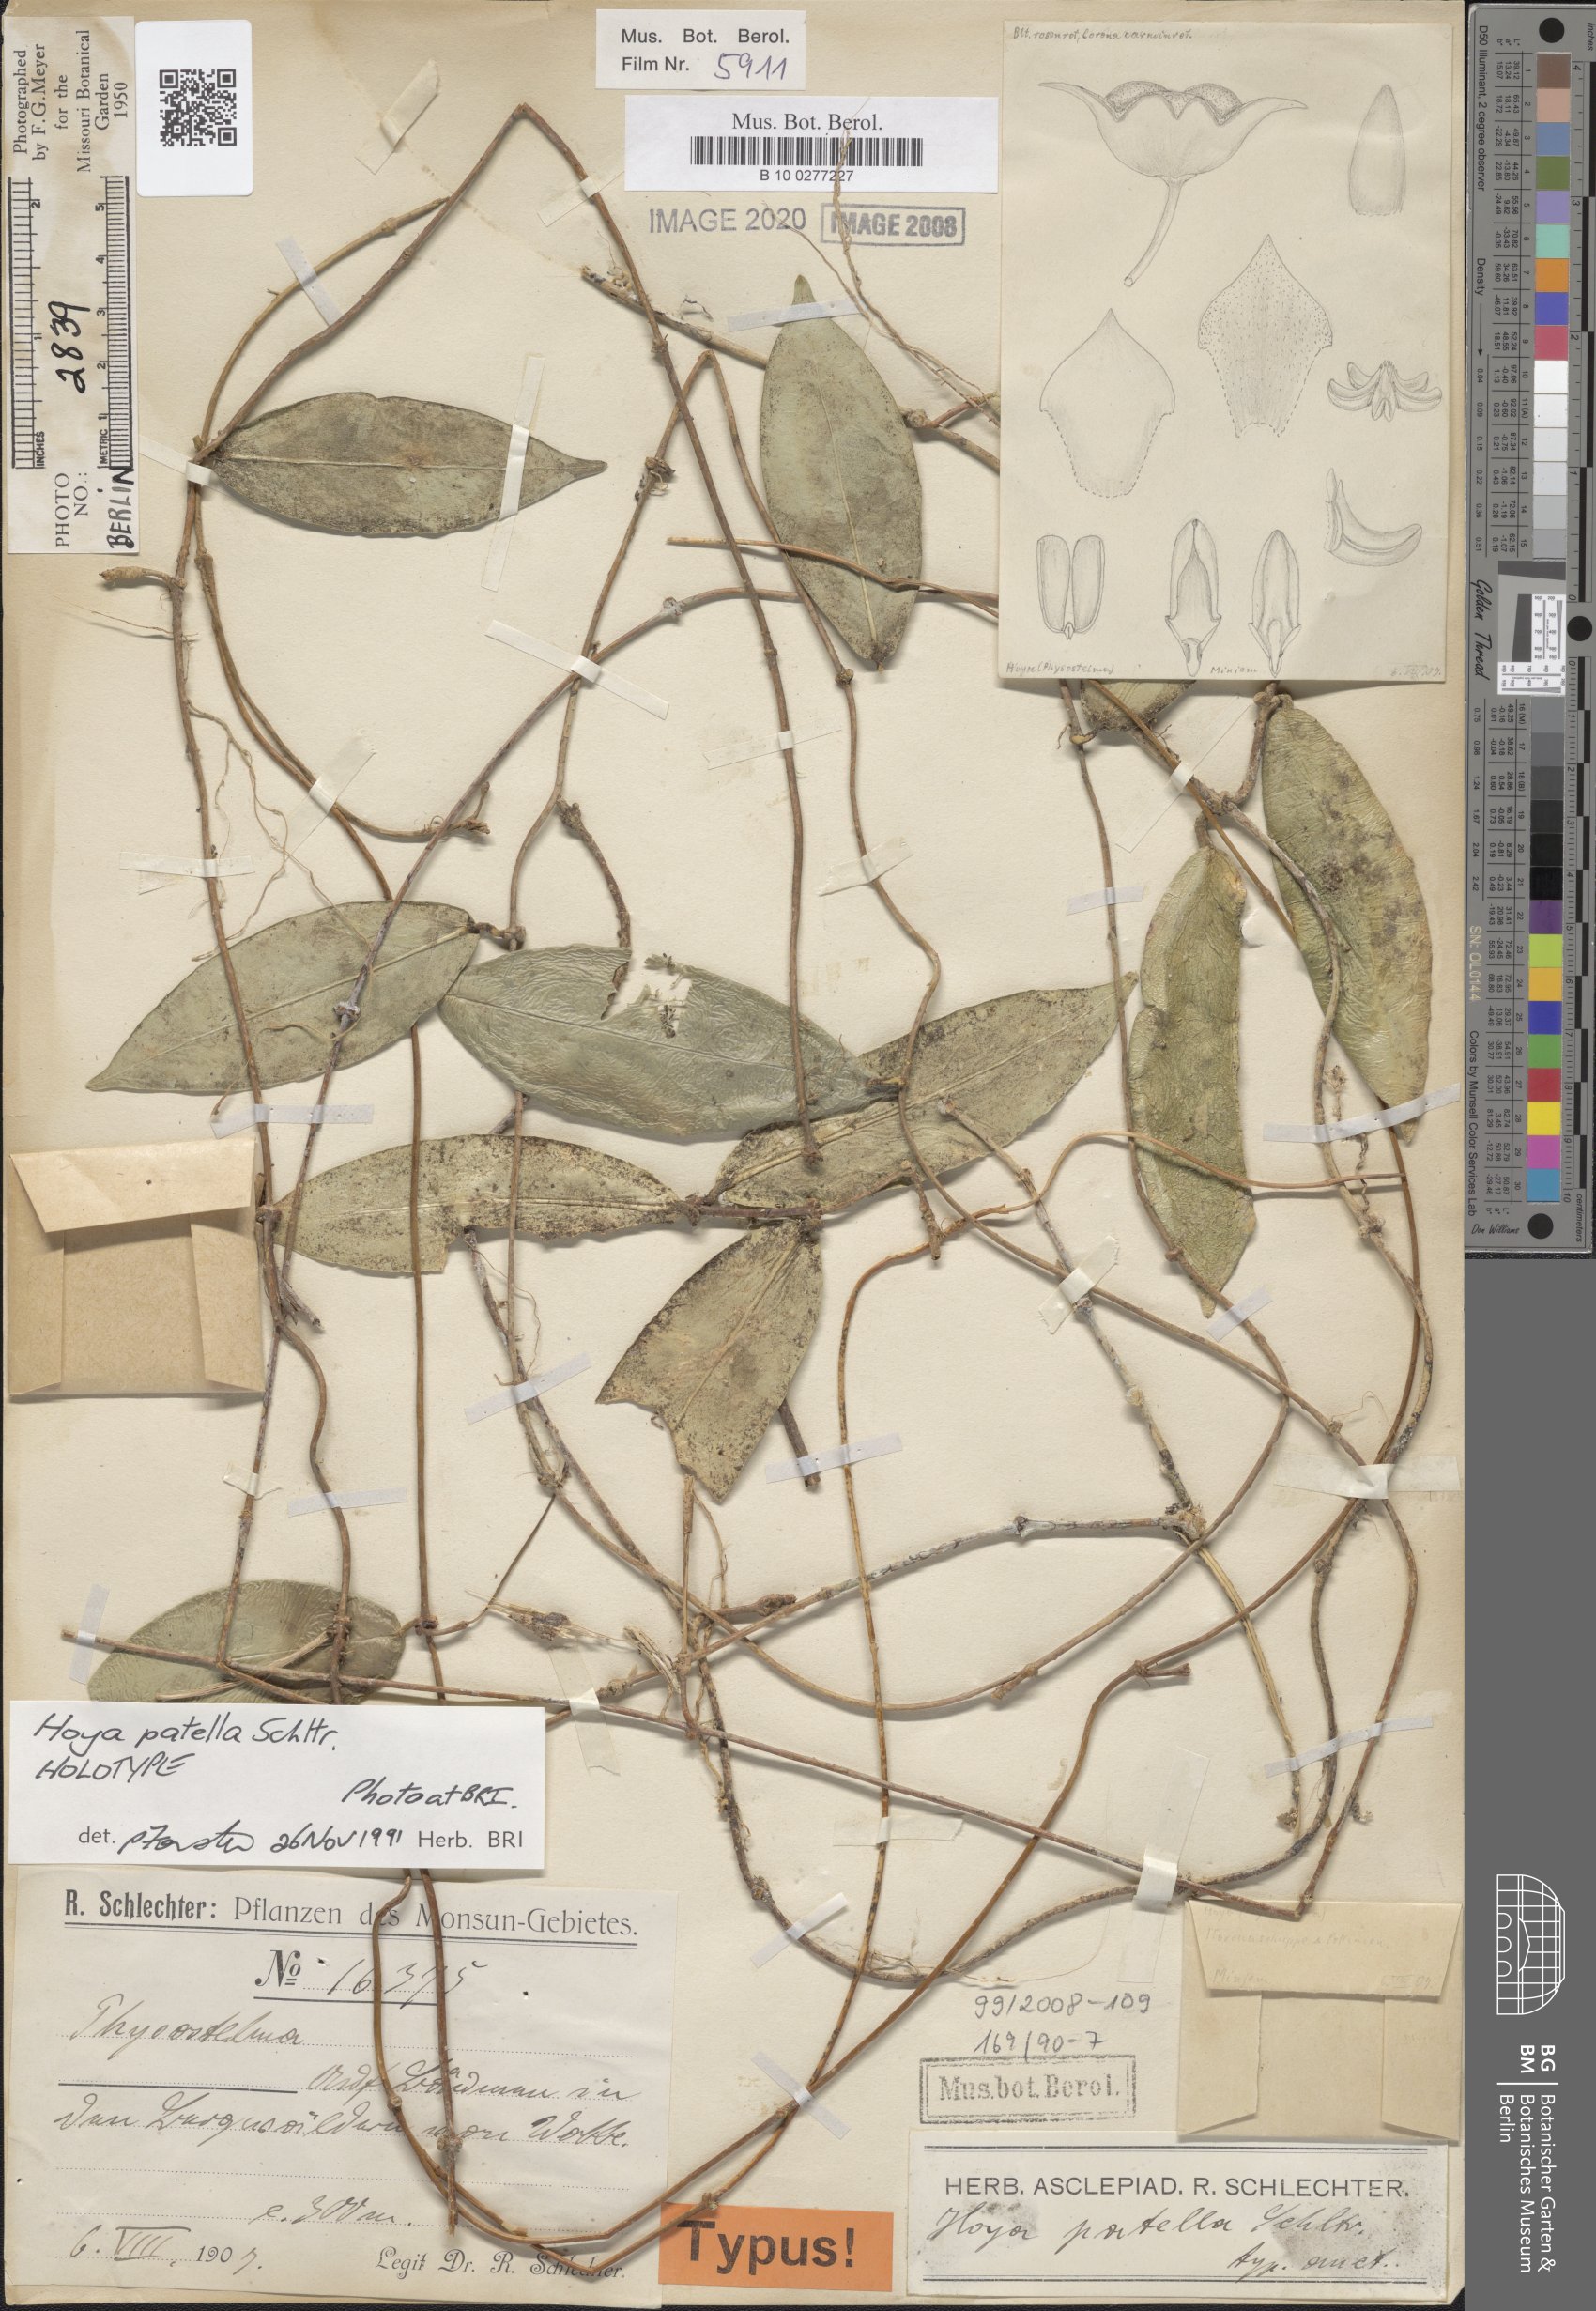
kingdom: Plantae
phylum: Tracheophyta
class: Magnoliopsida
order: Gentianales
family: Apocynaceae
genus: Hoya
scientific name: Hoya patella
